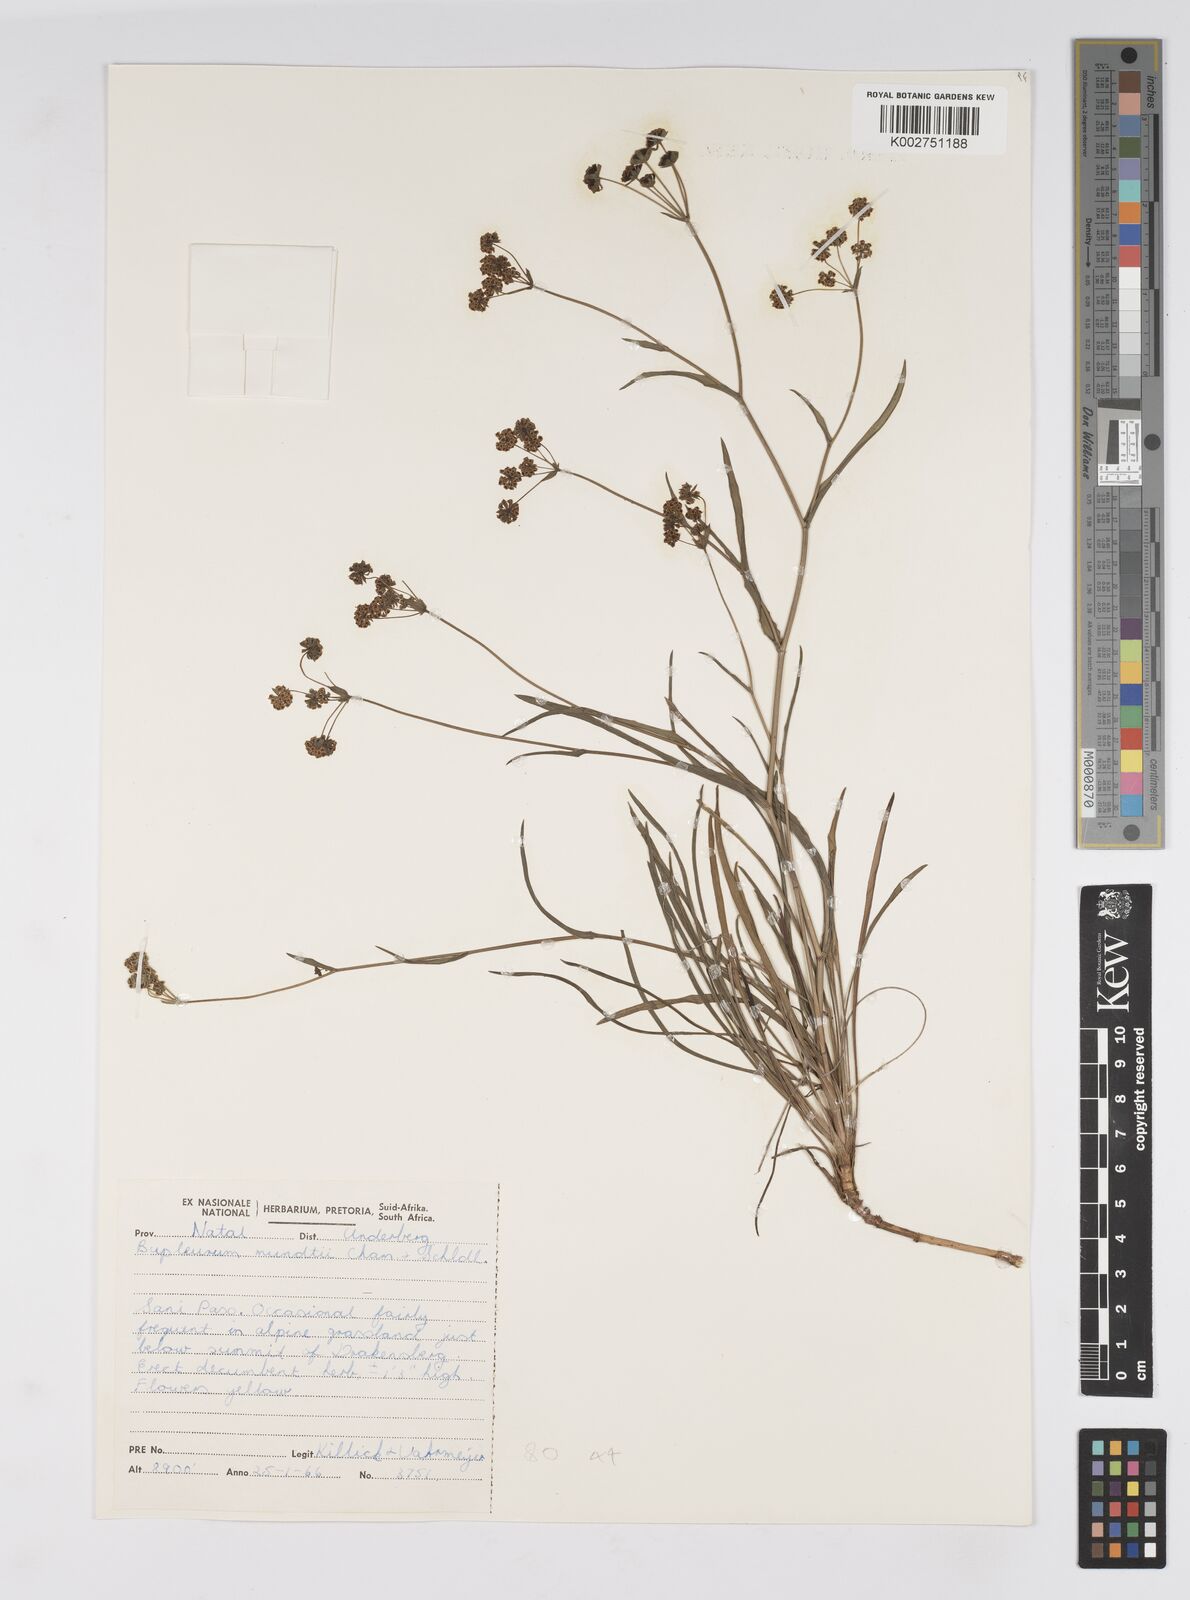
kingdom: Plantae
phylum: Tracheophyta
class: Magnoliopsida
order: Apiales
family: Apiaceae
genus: Bupleurum
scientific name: Bupleurum mundii
